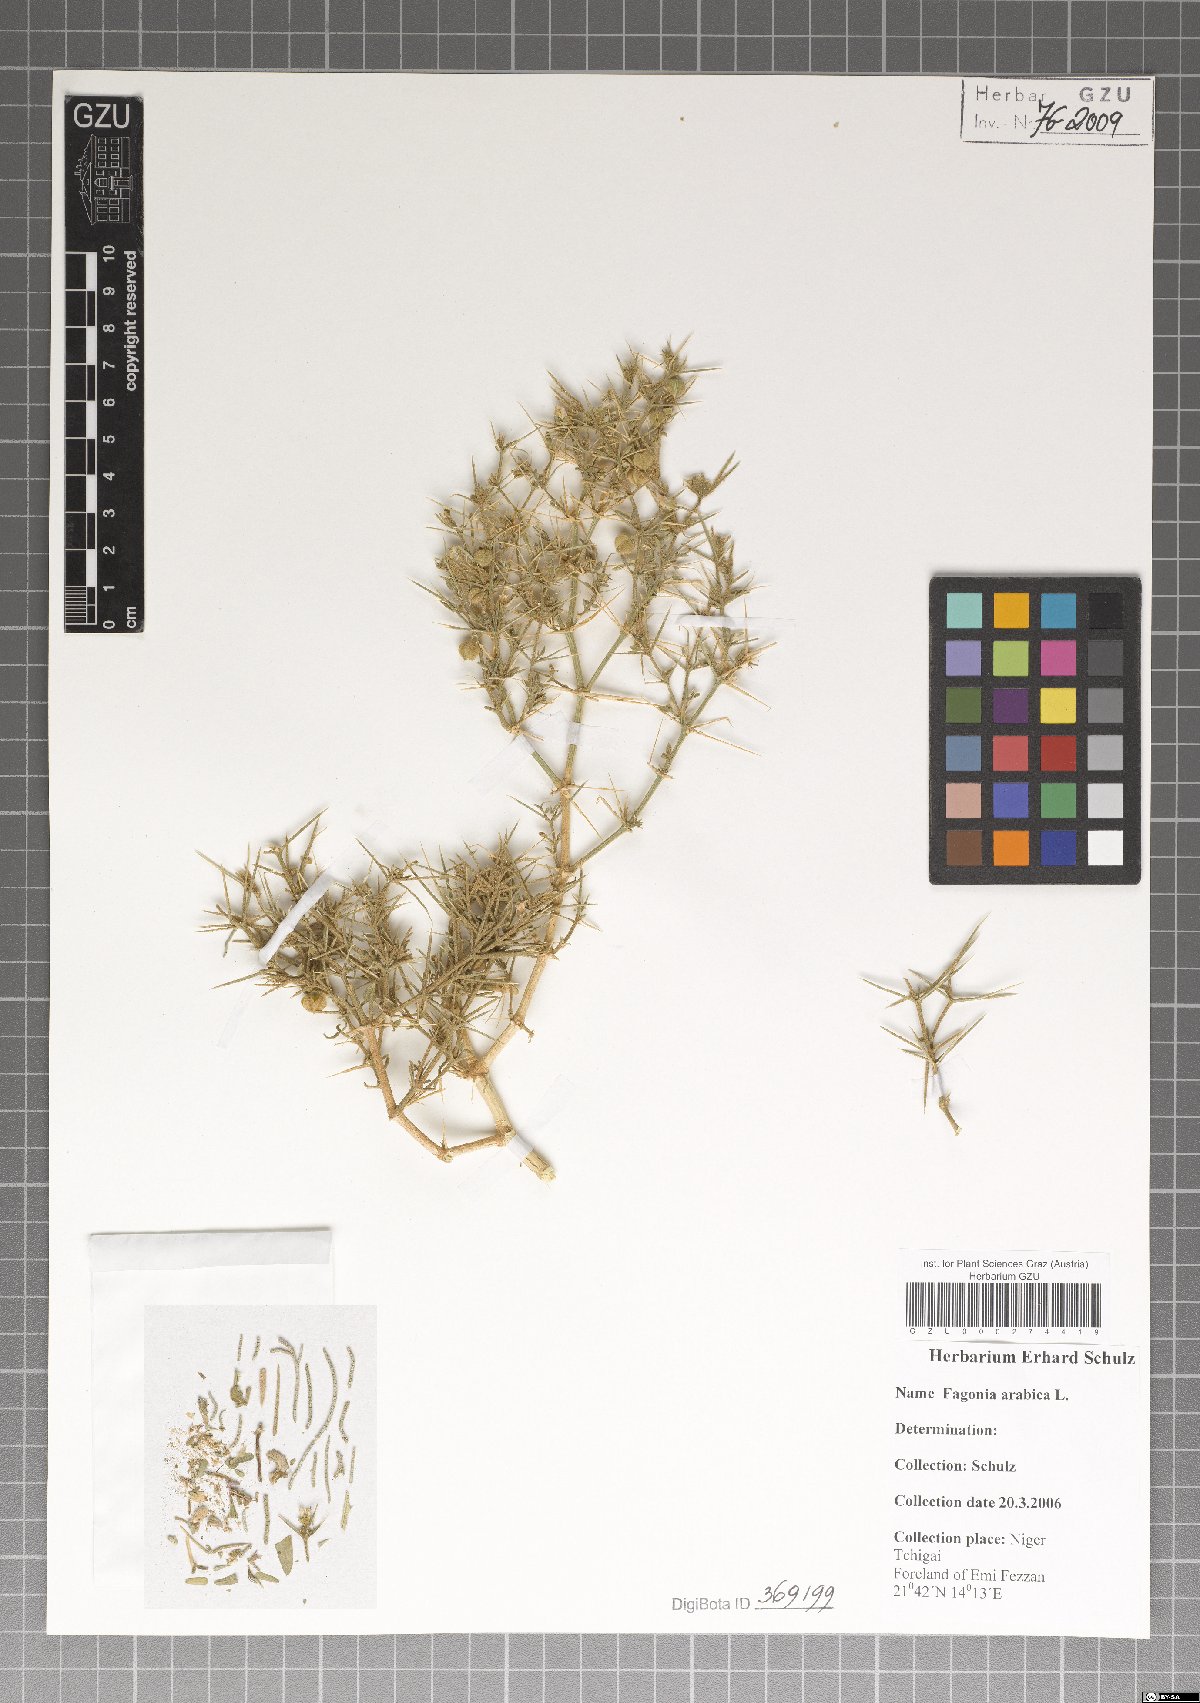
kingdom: Plantae
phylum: Tracheophyta
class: Magnoliopsida
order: Zygophyllales
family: Zygophyllaceae
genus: Fagonia
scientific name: Fagonia arabica
